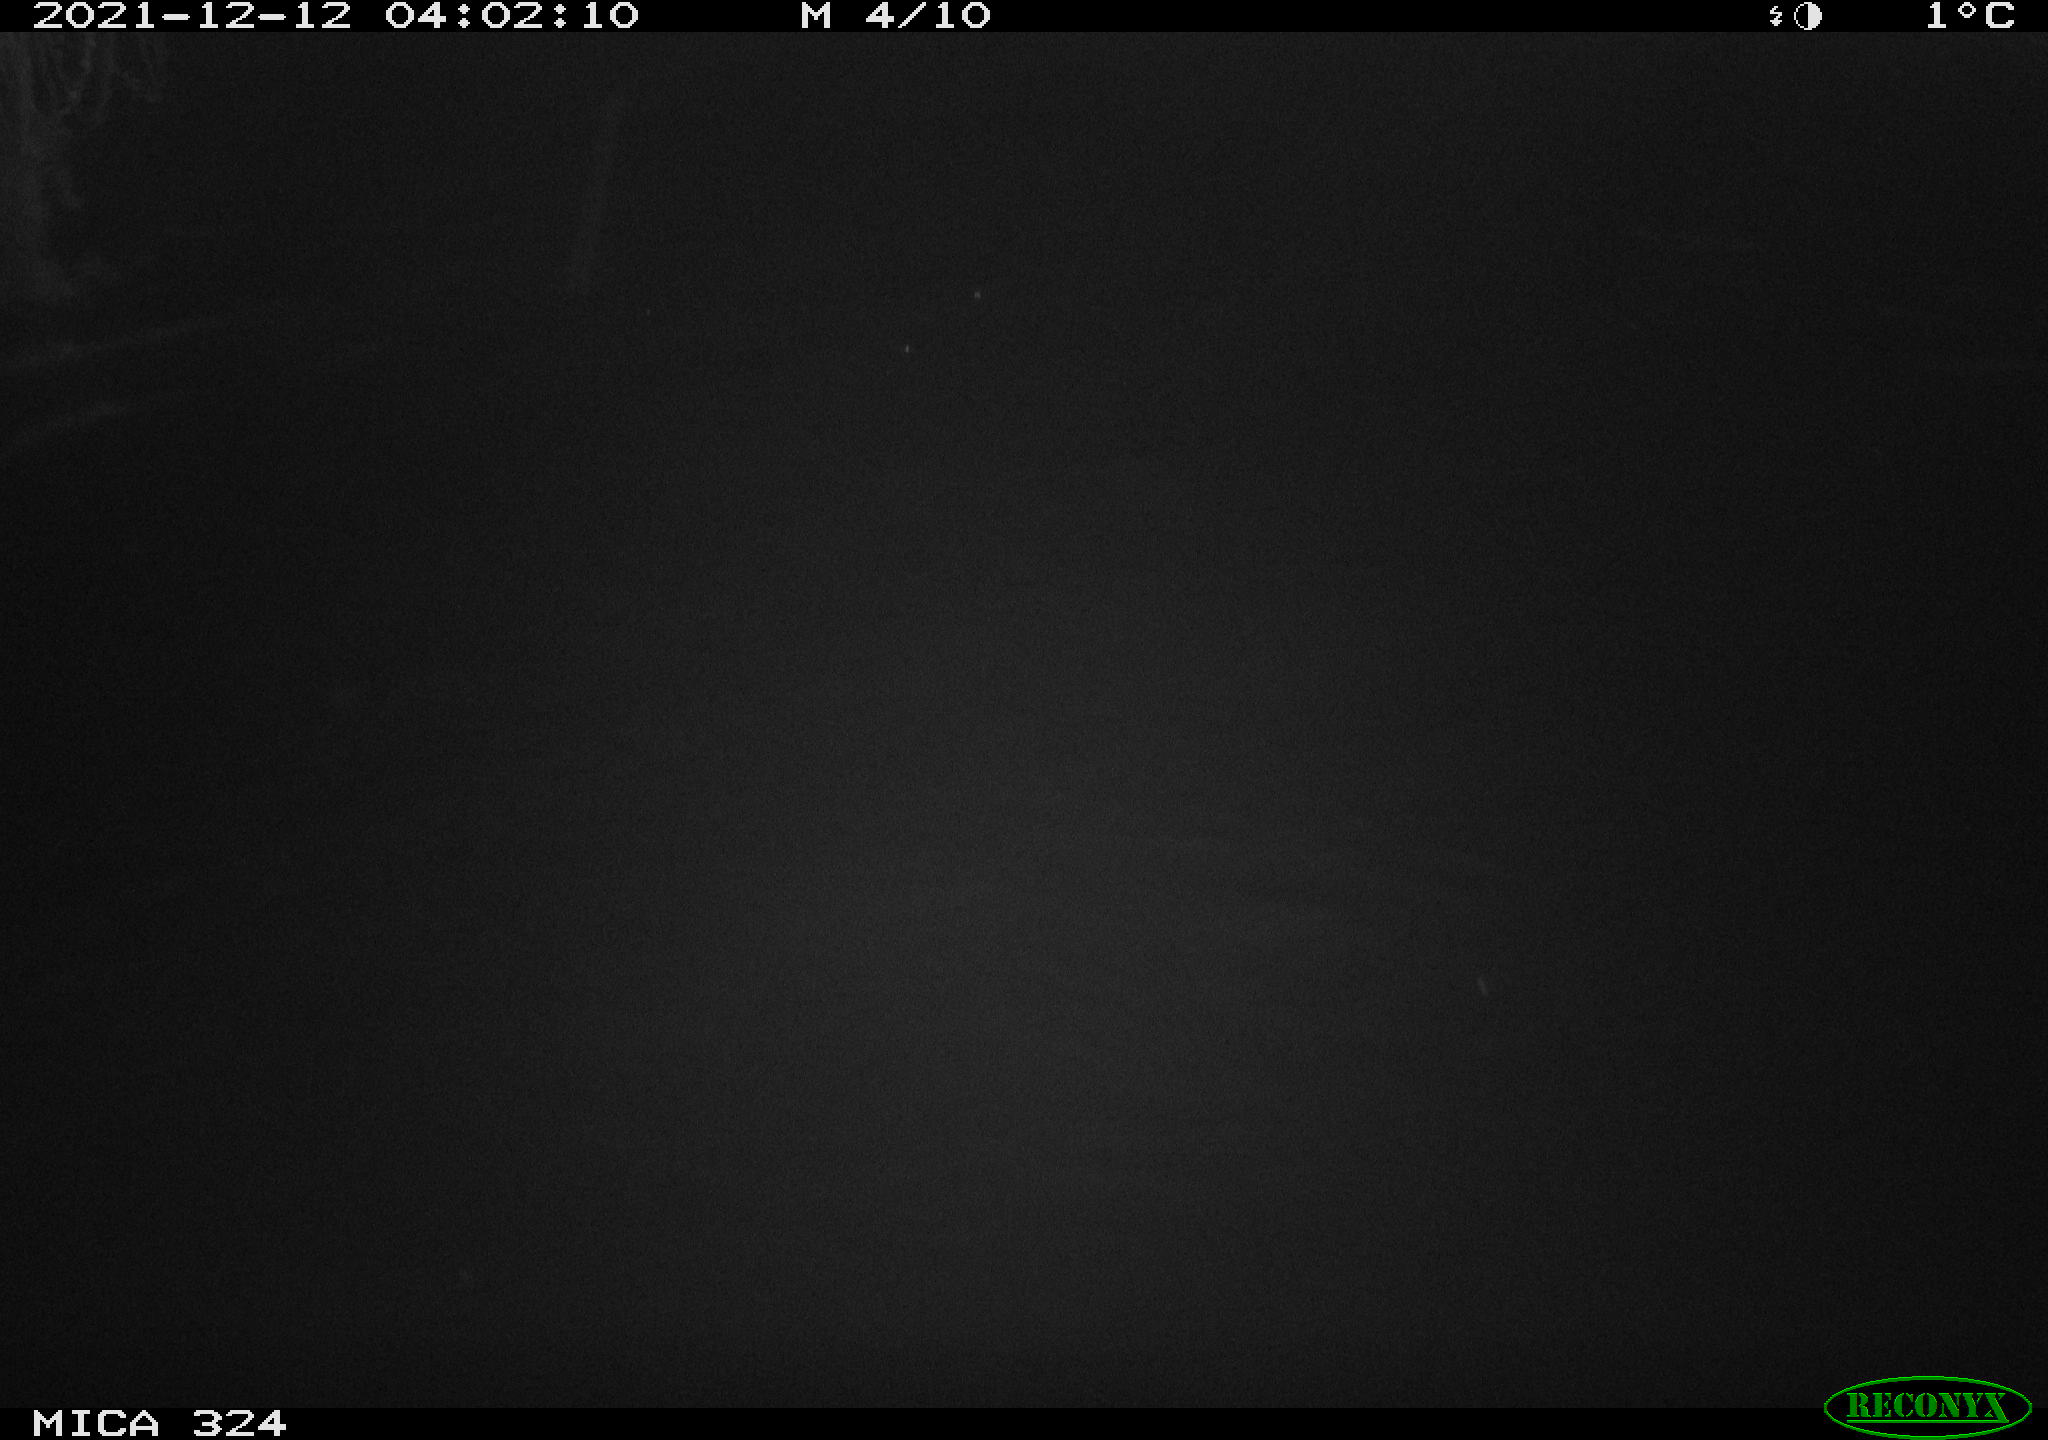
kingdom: Animalia
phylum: Chordata
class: Mammalia
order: Rodentia
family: Cricetidae
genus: Ondatra
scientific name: Ondatra zibethicus
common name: Muskrat
